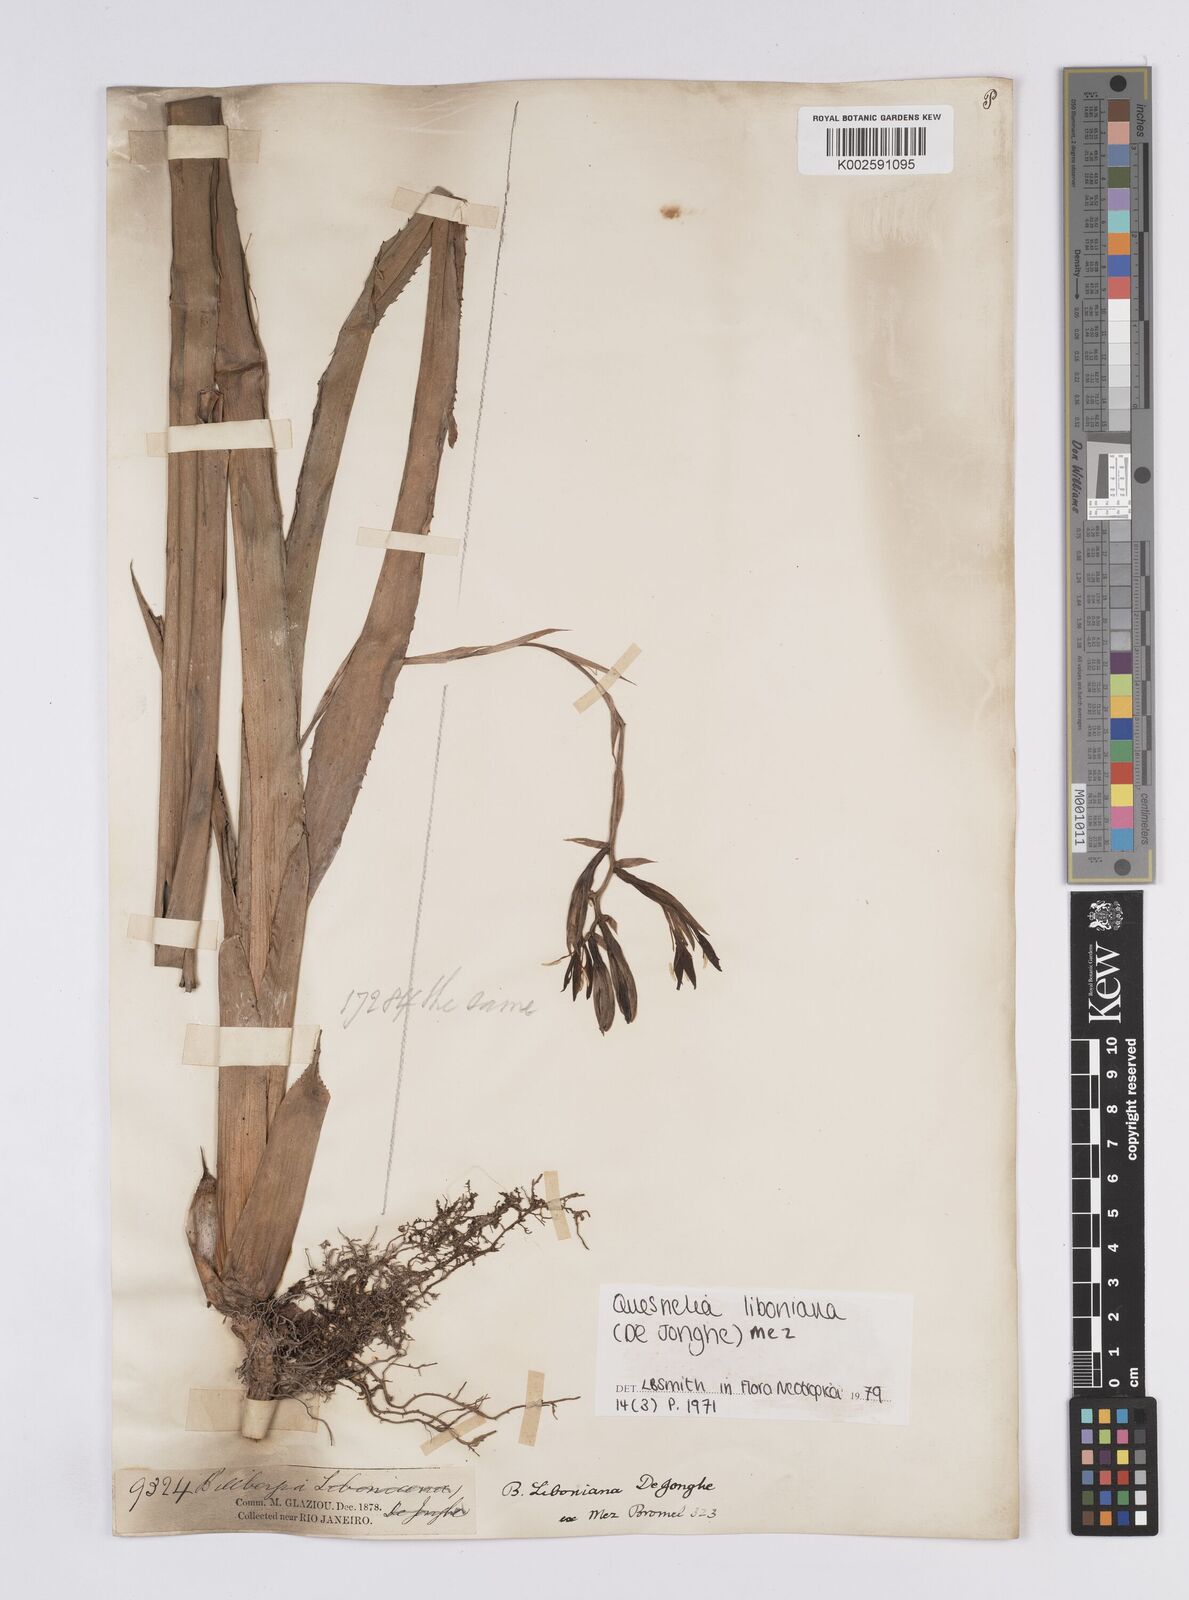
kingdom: Plantae
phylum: Tracheophyta
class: Liliopsida
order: Poales
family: Bromeliaceae
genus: Quesnelia
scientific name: Quesnelia liboniana
